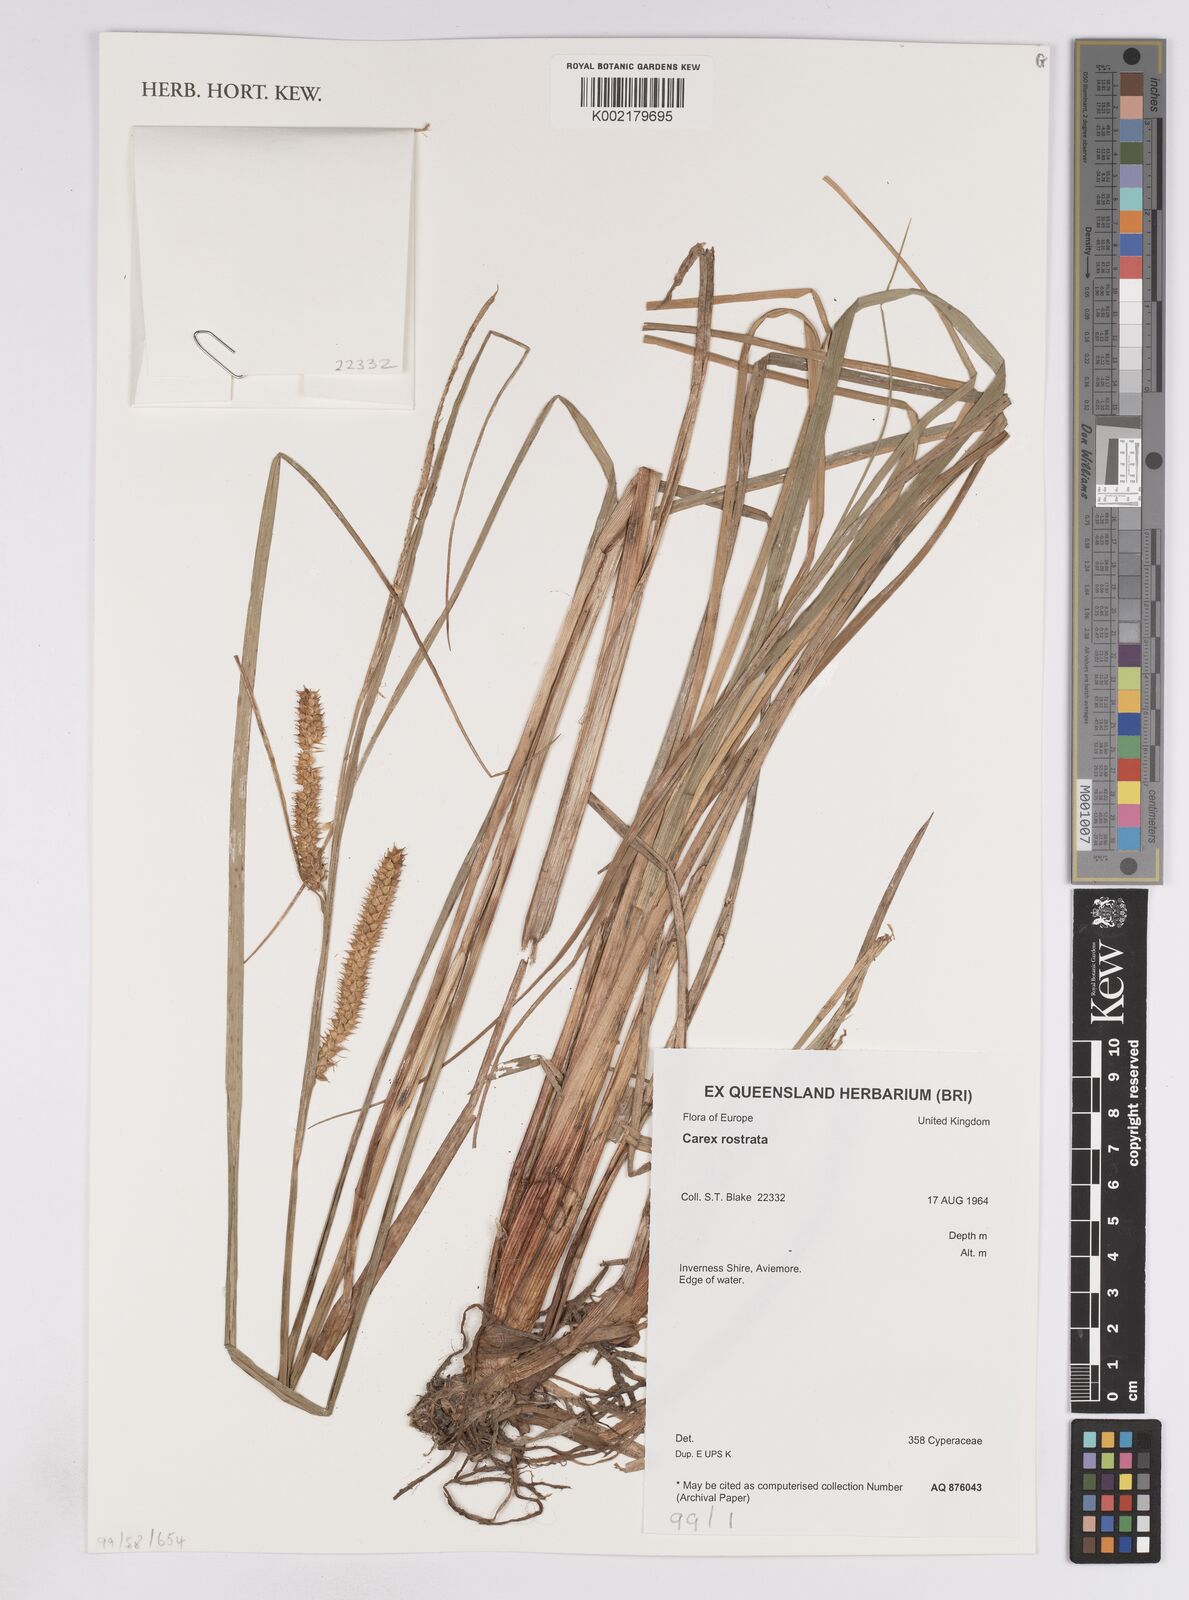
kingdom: Plantae
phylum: Tracheophyta
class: Liliopsida
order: Poales
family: Cyperaceae
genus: Carex
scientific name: Carex rostrata
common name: Bottle sedge
